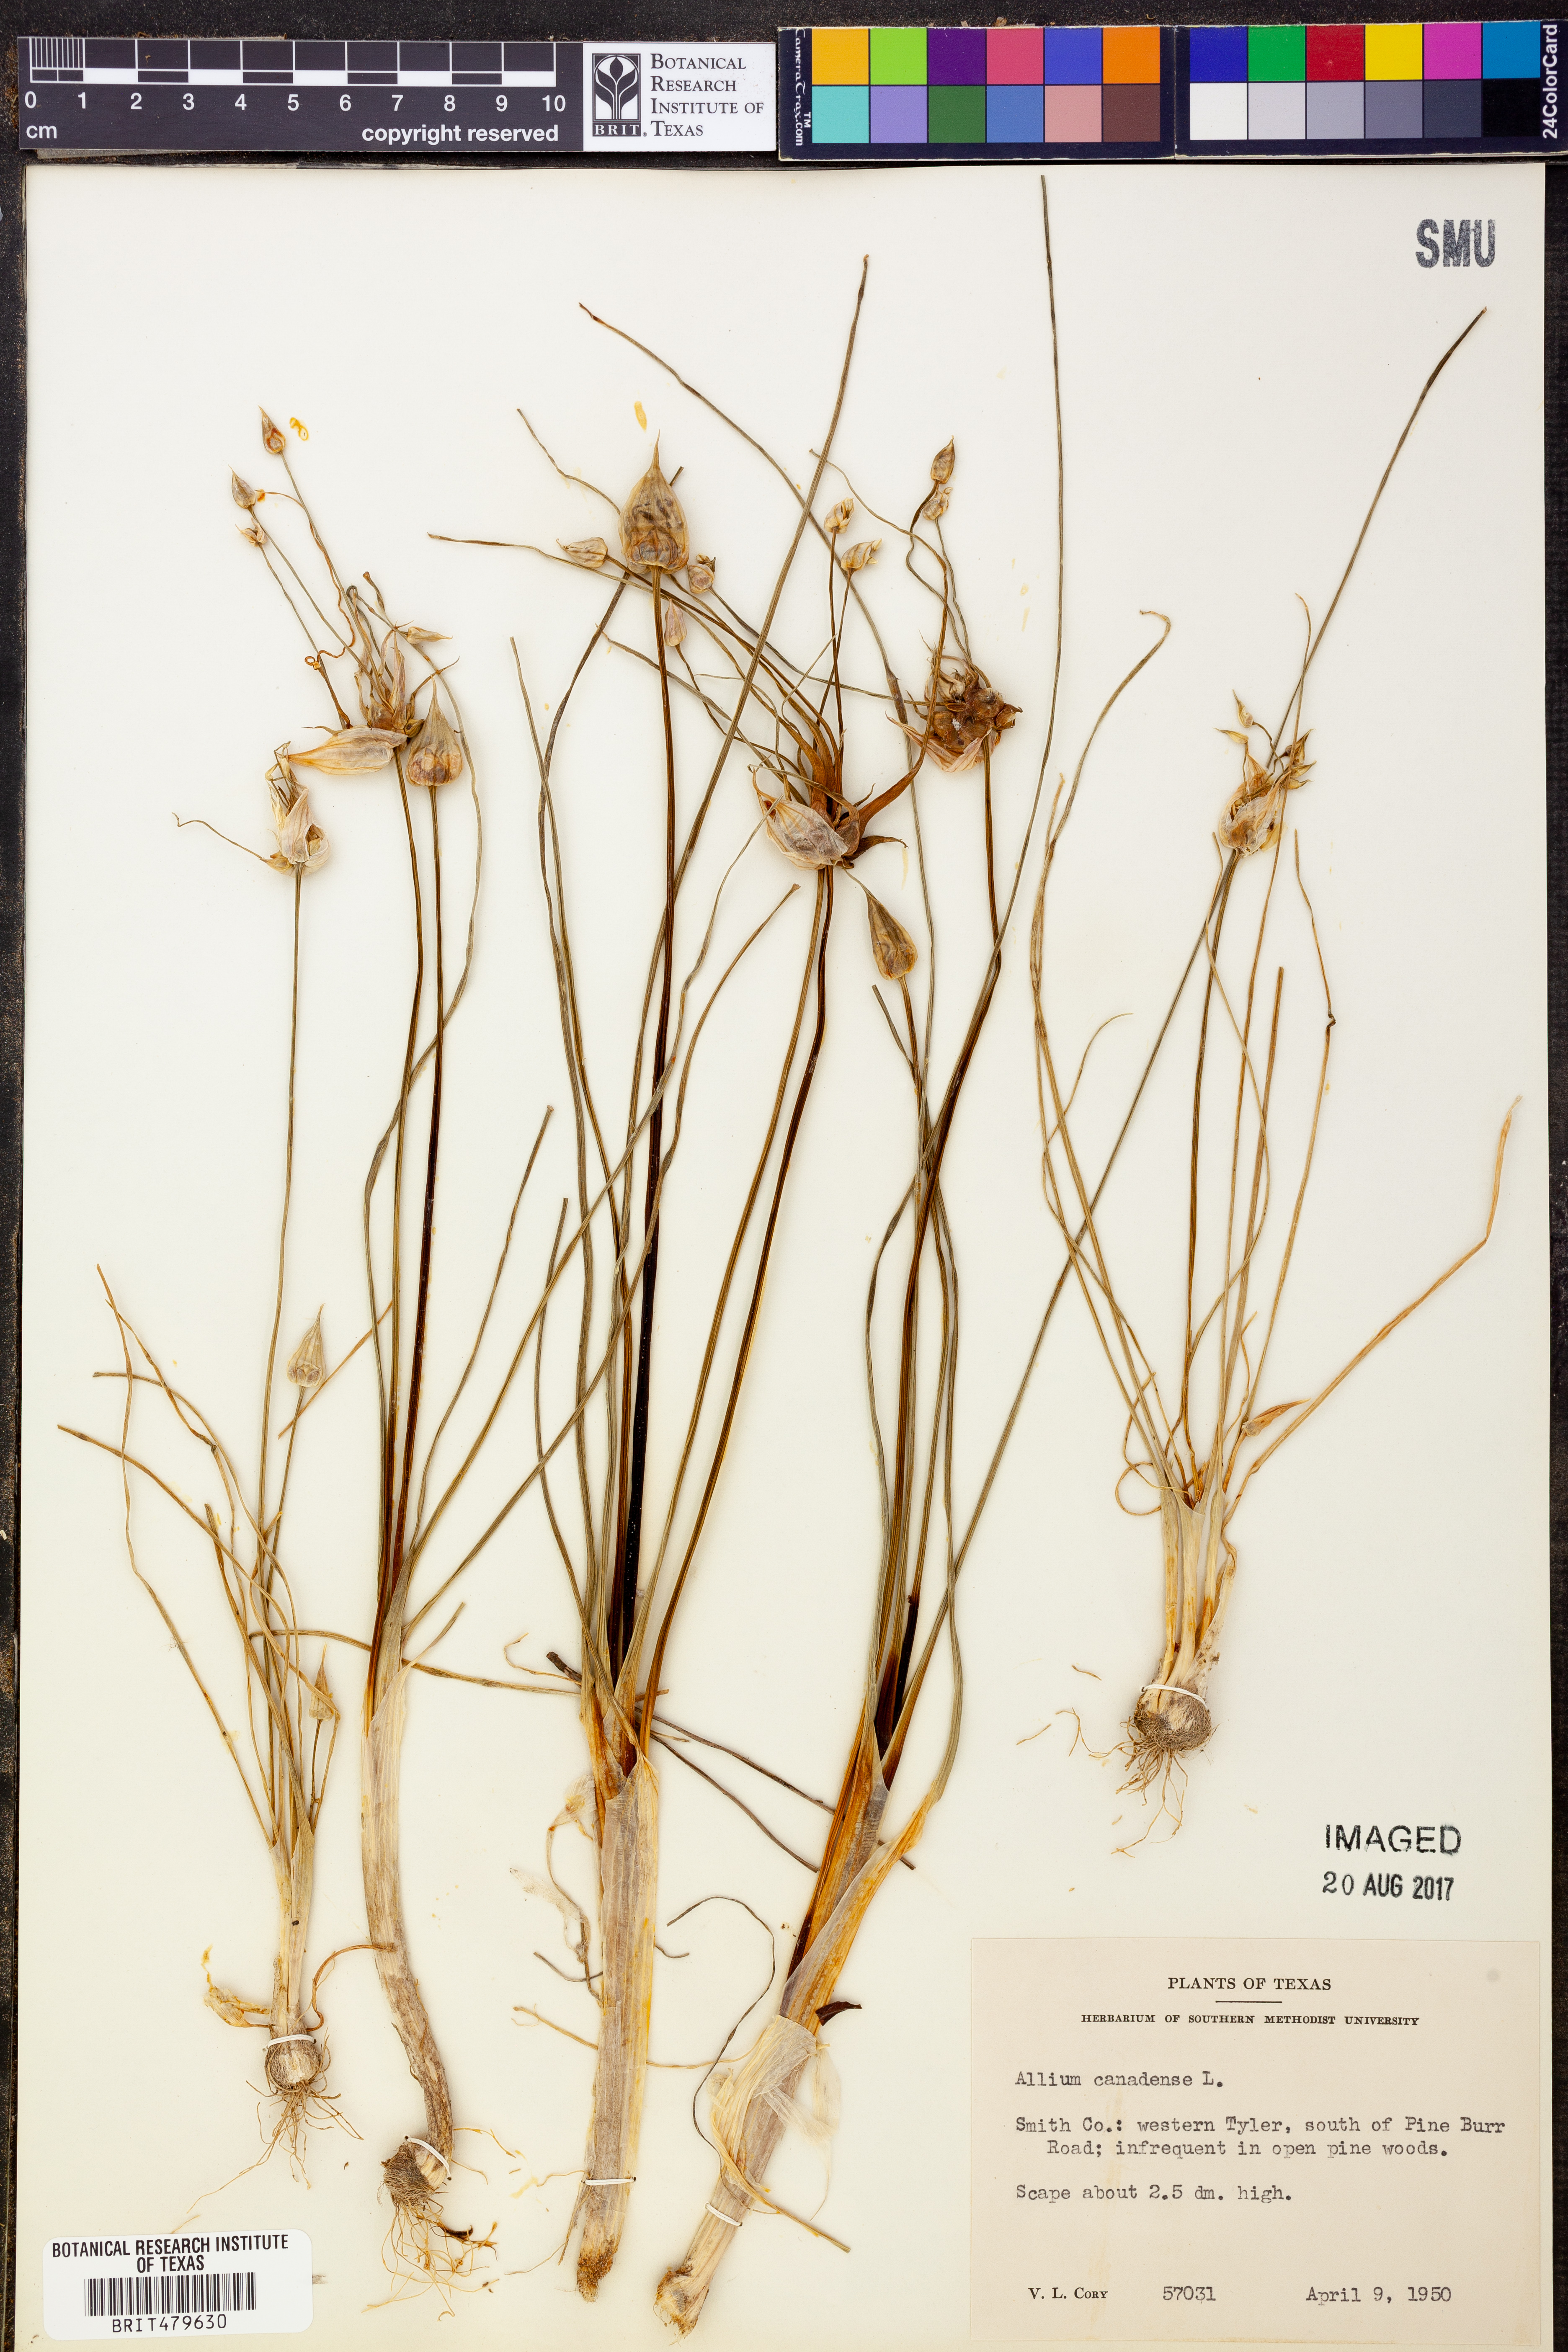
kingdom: Plantae
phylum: Tracheophyta
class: Liliopsida
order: Asparagales
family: Amaryllidaceae
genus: Allium
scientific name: Allium canadense
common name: Meadow garlic
